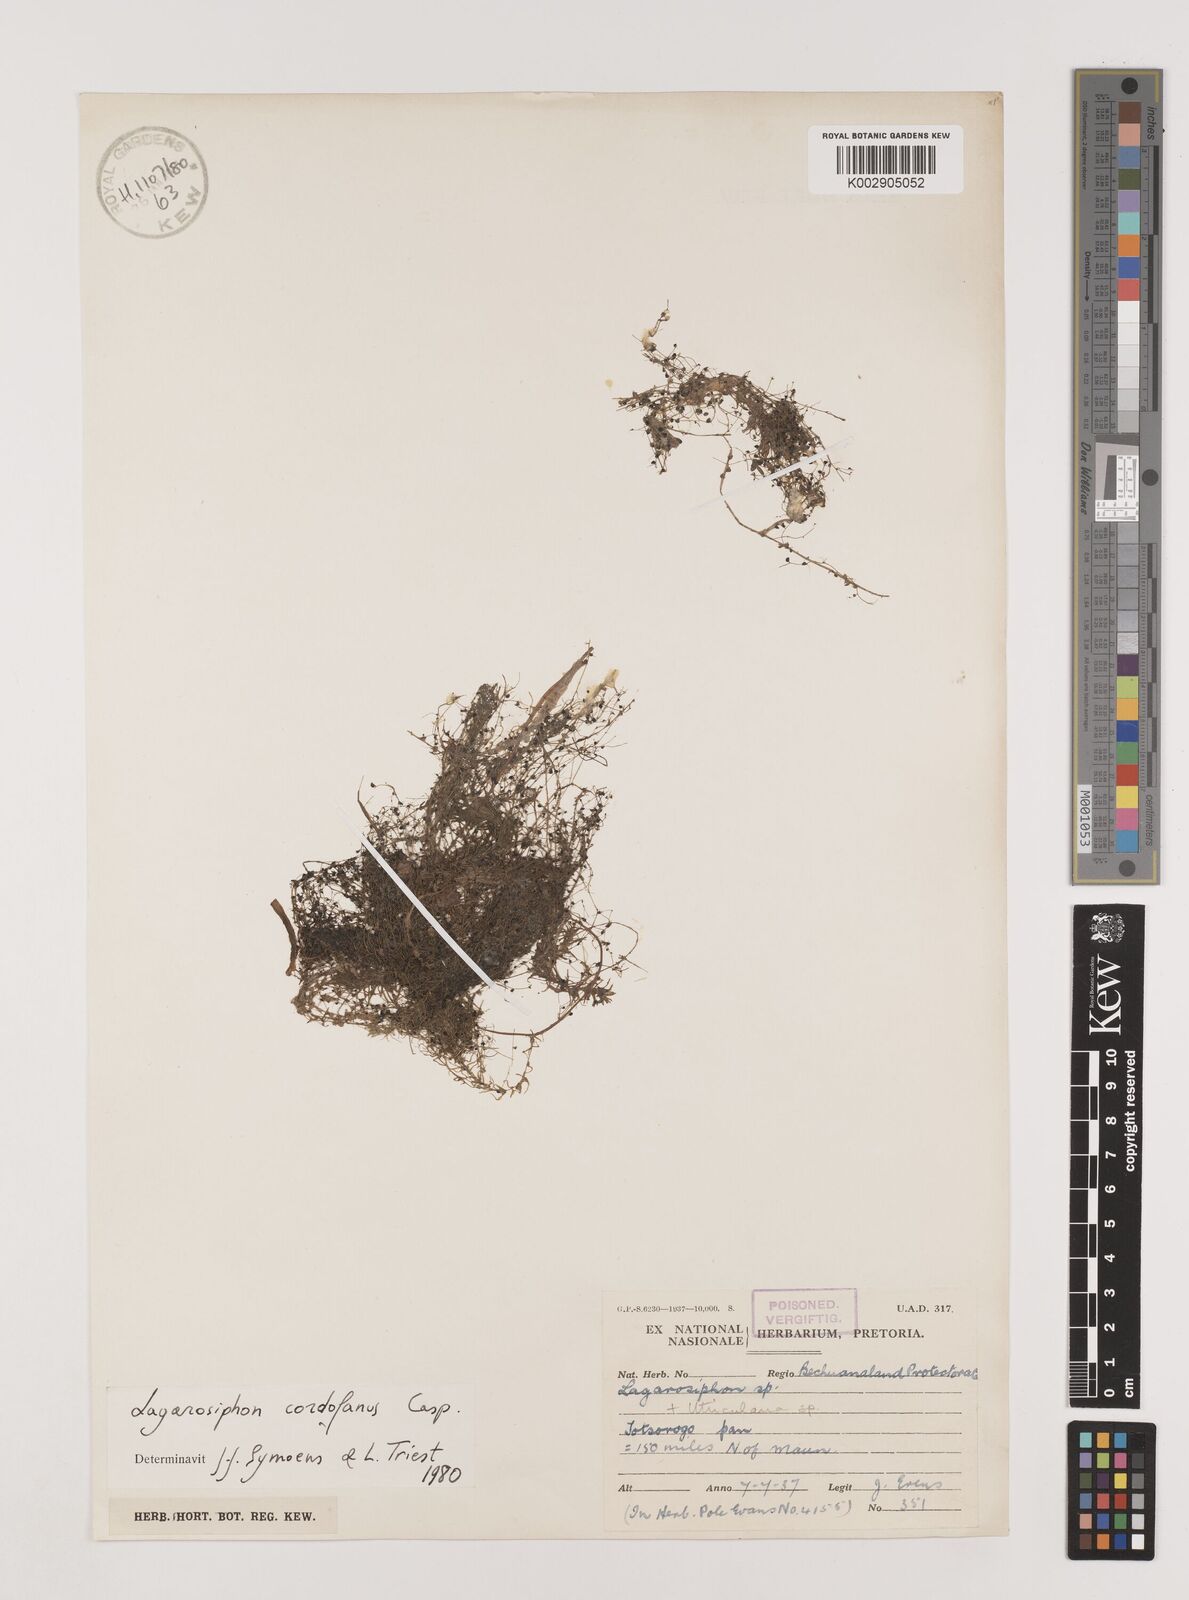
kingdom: Plantae
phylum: Tracheophyta
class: Liliopsida
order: Alismatales
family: Hydrocharitaceae
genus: Lagarosiphon
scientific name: Lagarosiphon cordofanus
